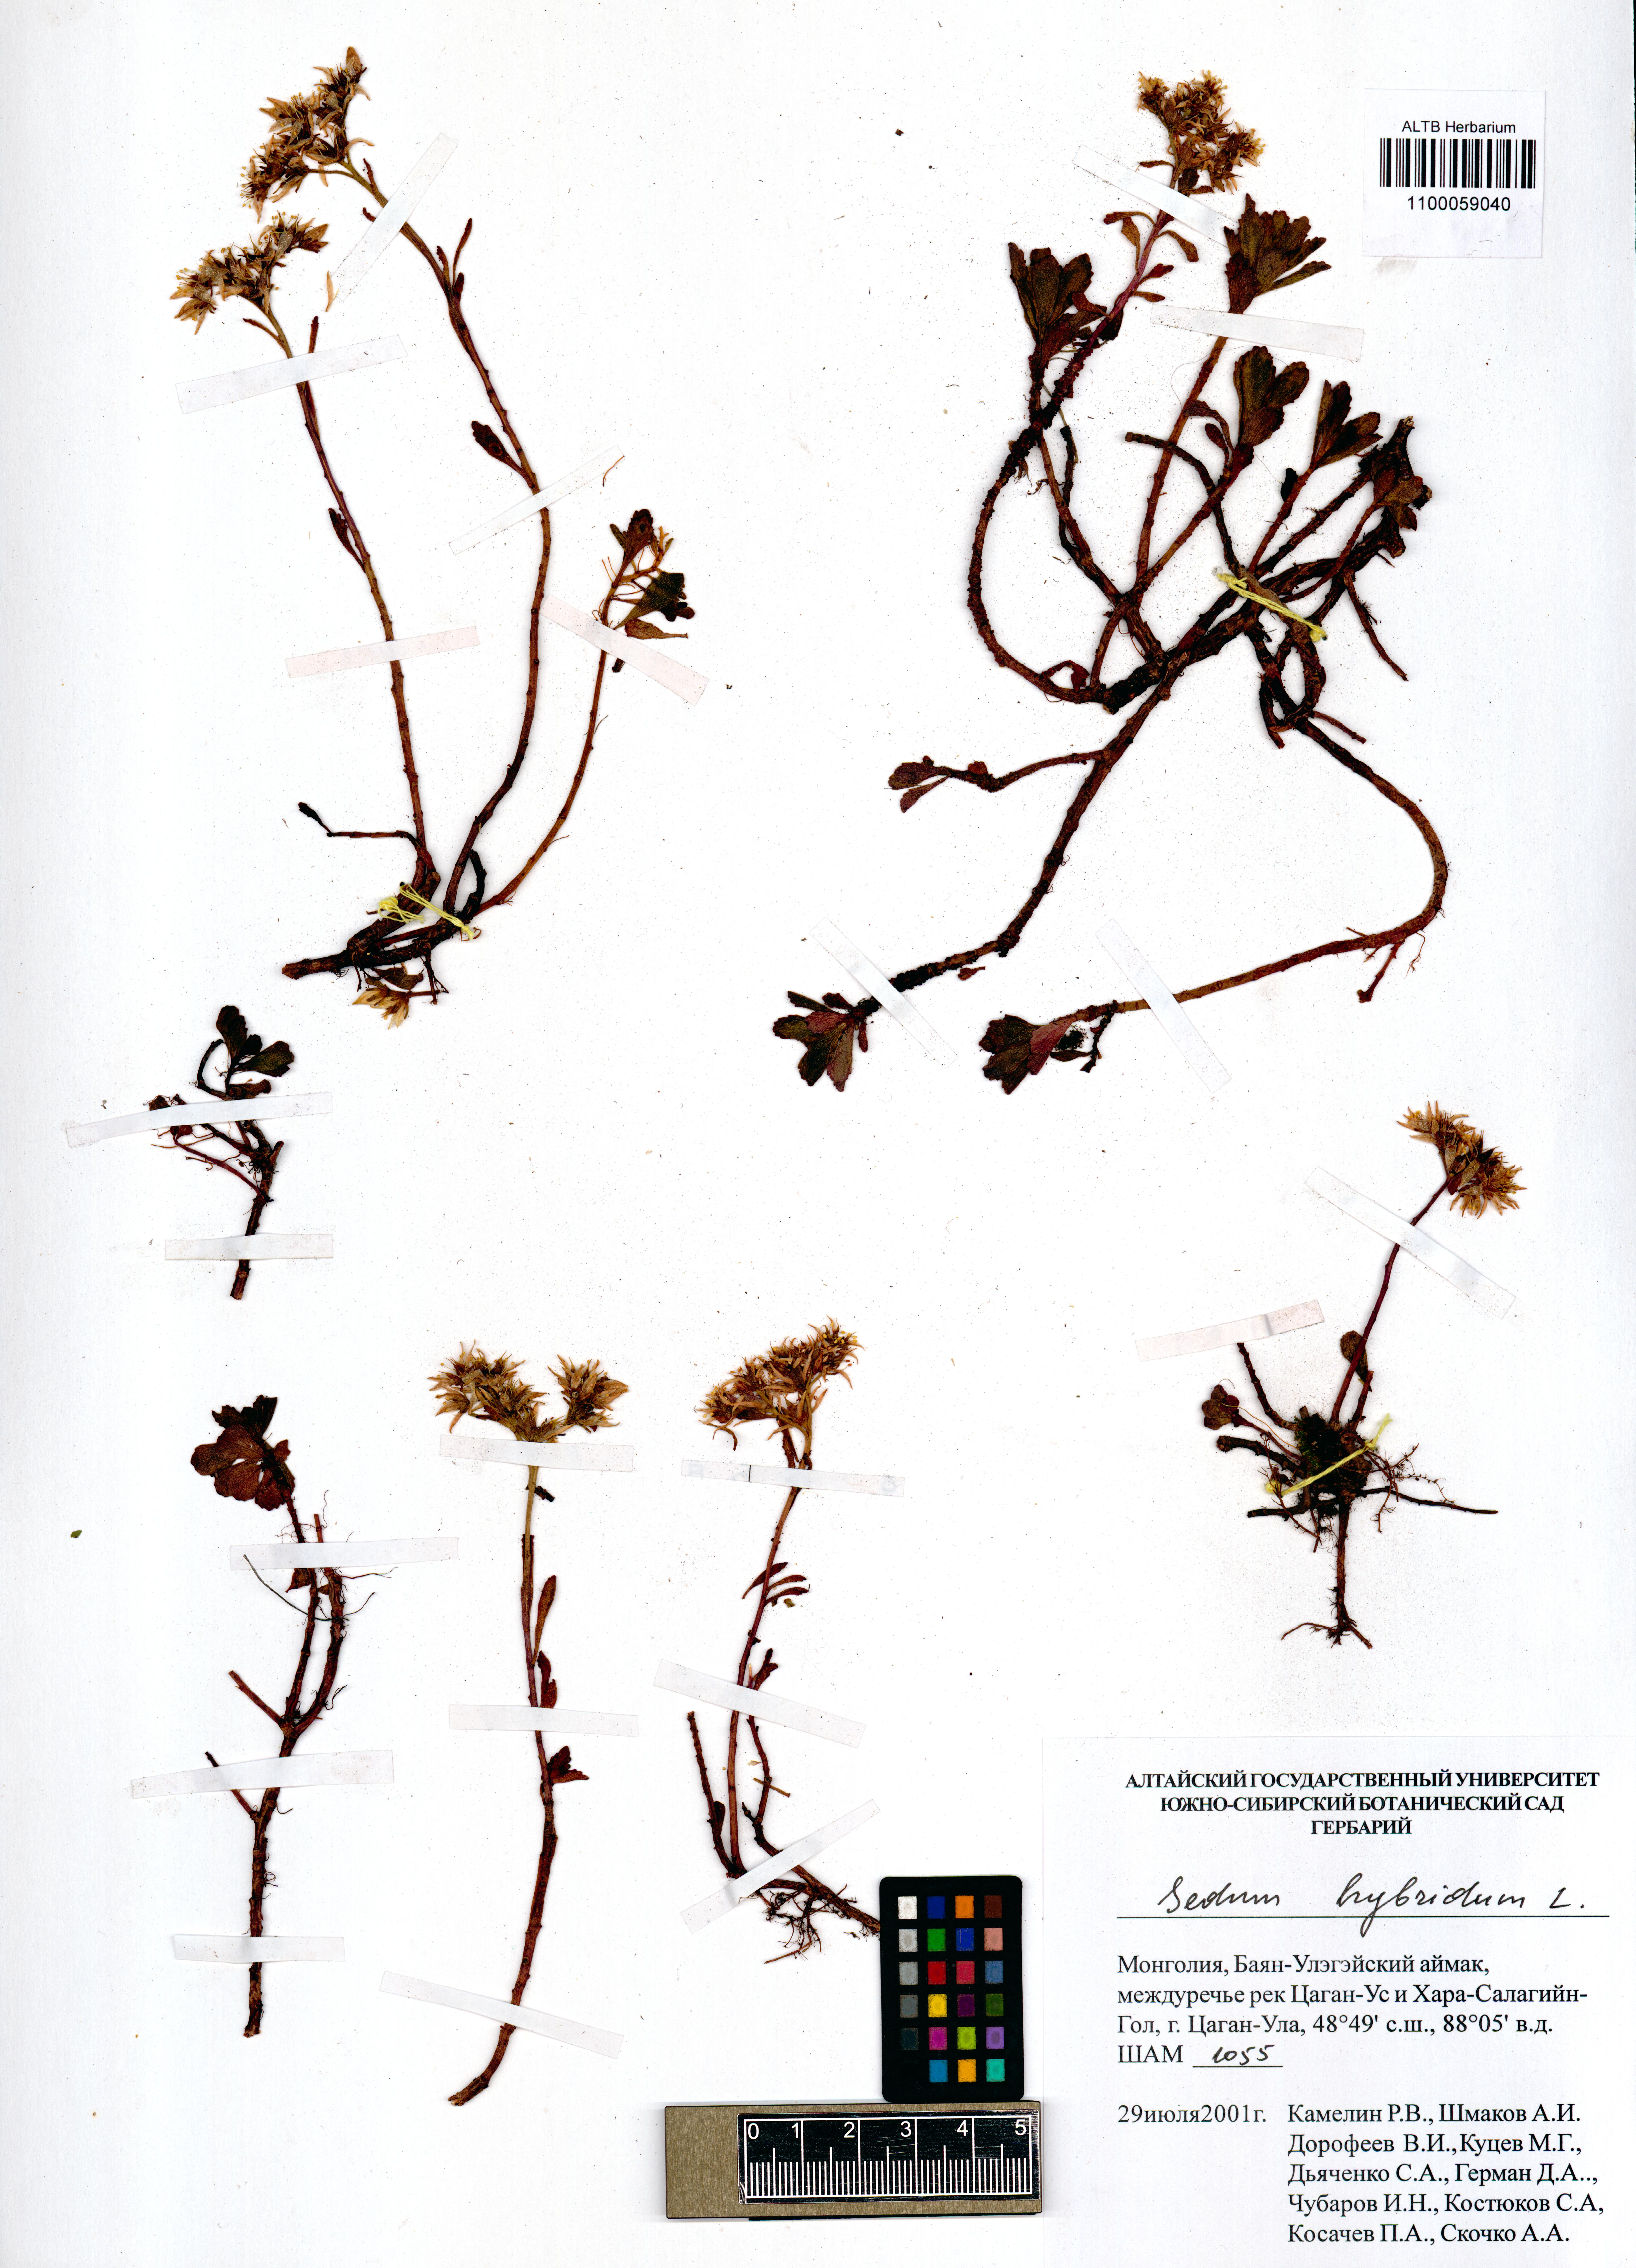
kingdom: Plantae
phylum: Tracheophyta
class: Magnoliopsida
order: Saxifragales
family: Crassulaceae
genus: Phedimus
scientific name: Phedimus hybridus
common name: Hybrid stonecrop
